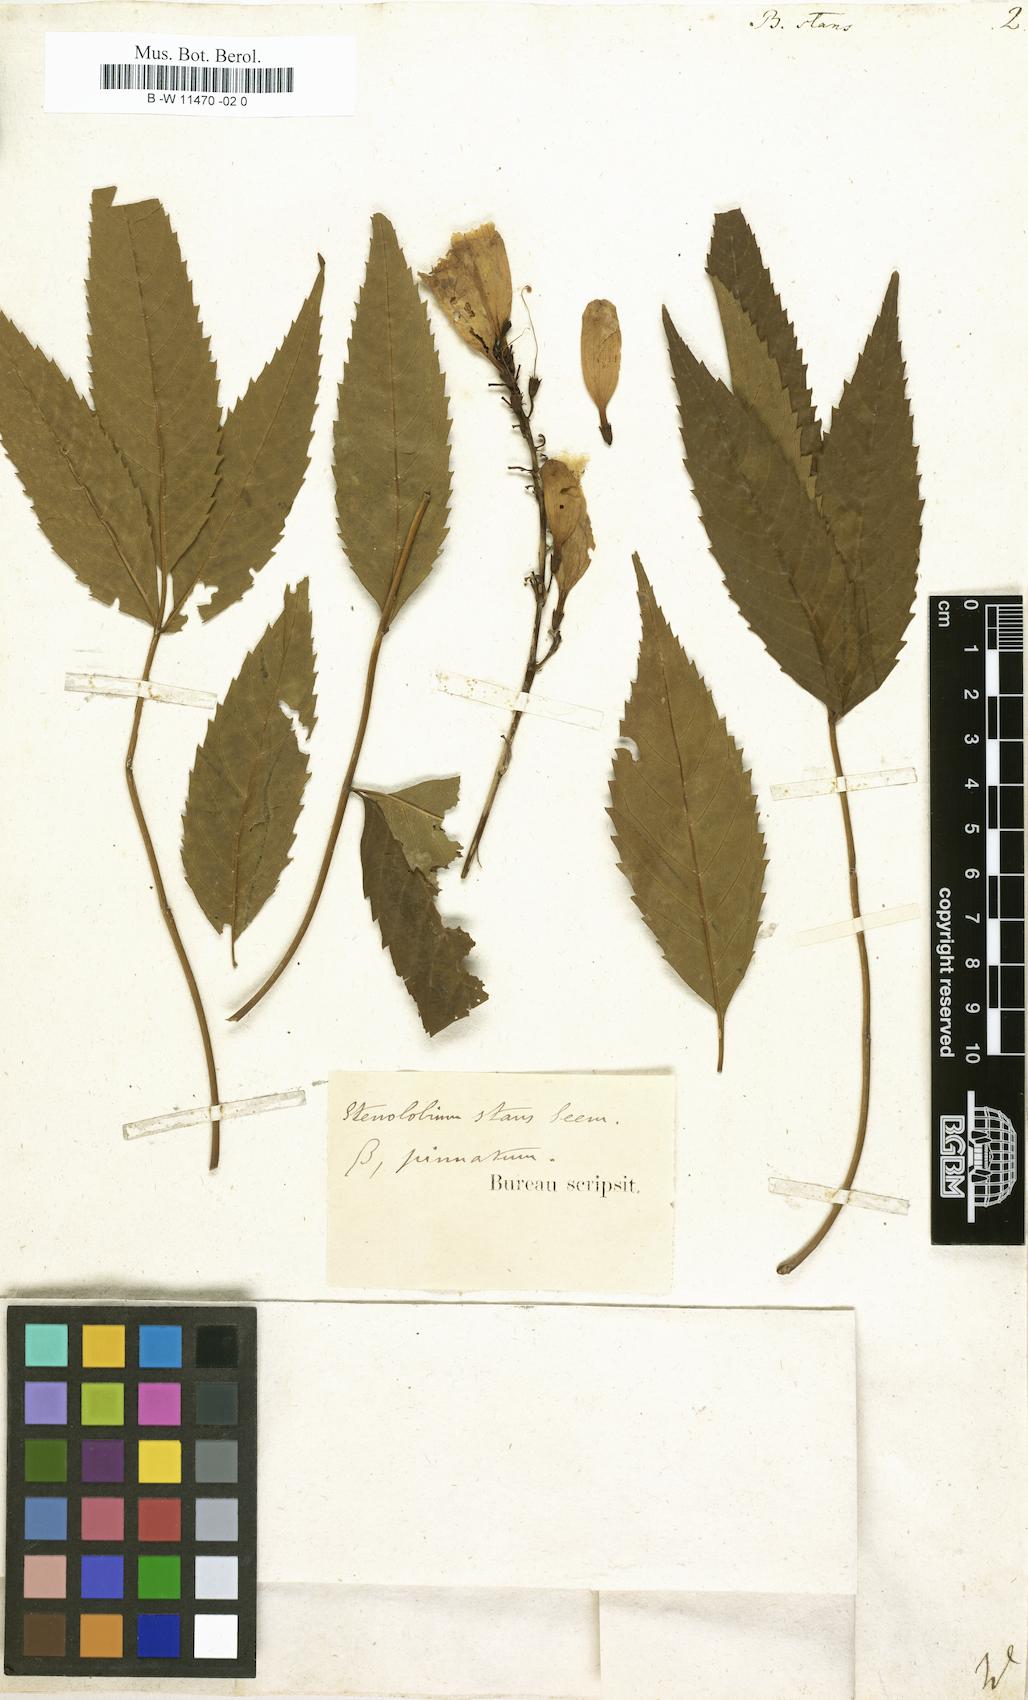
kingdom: Plantae
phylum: Tracheophyta
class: Magnoliopsida
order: Lamiales
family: Bignoniaceae
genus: Tecoma
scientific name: Tecoma stans
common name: Yellow trumpetbush
